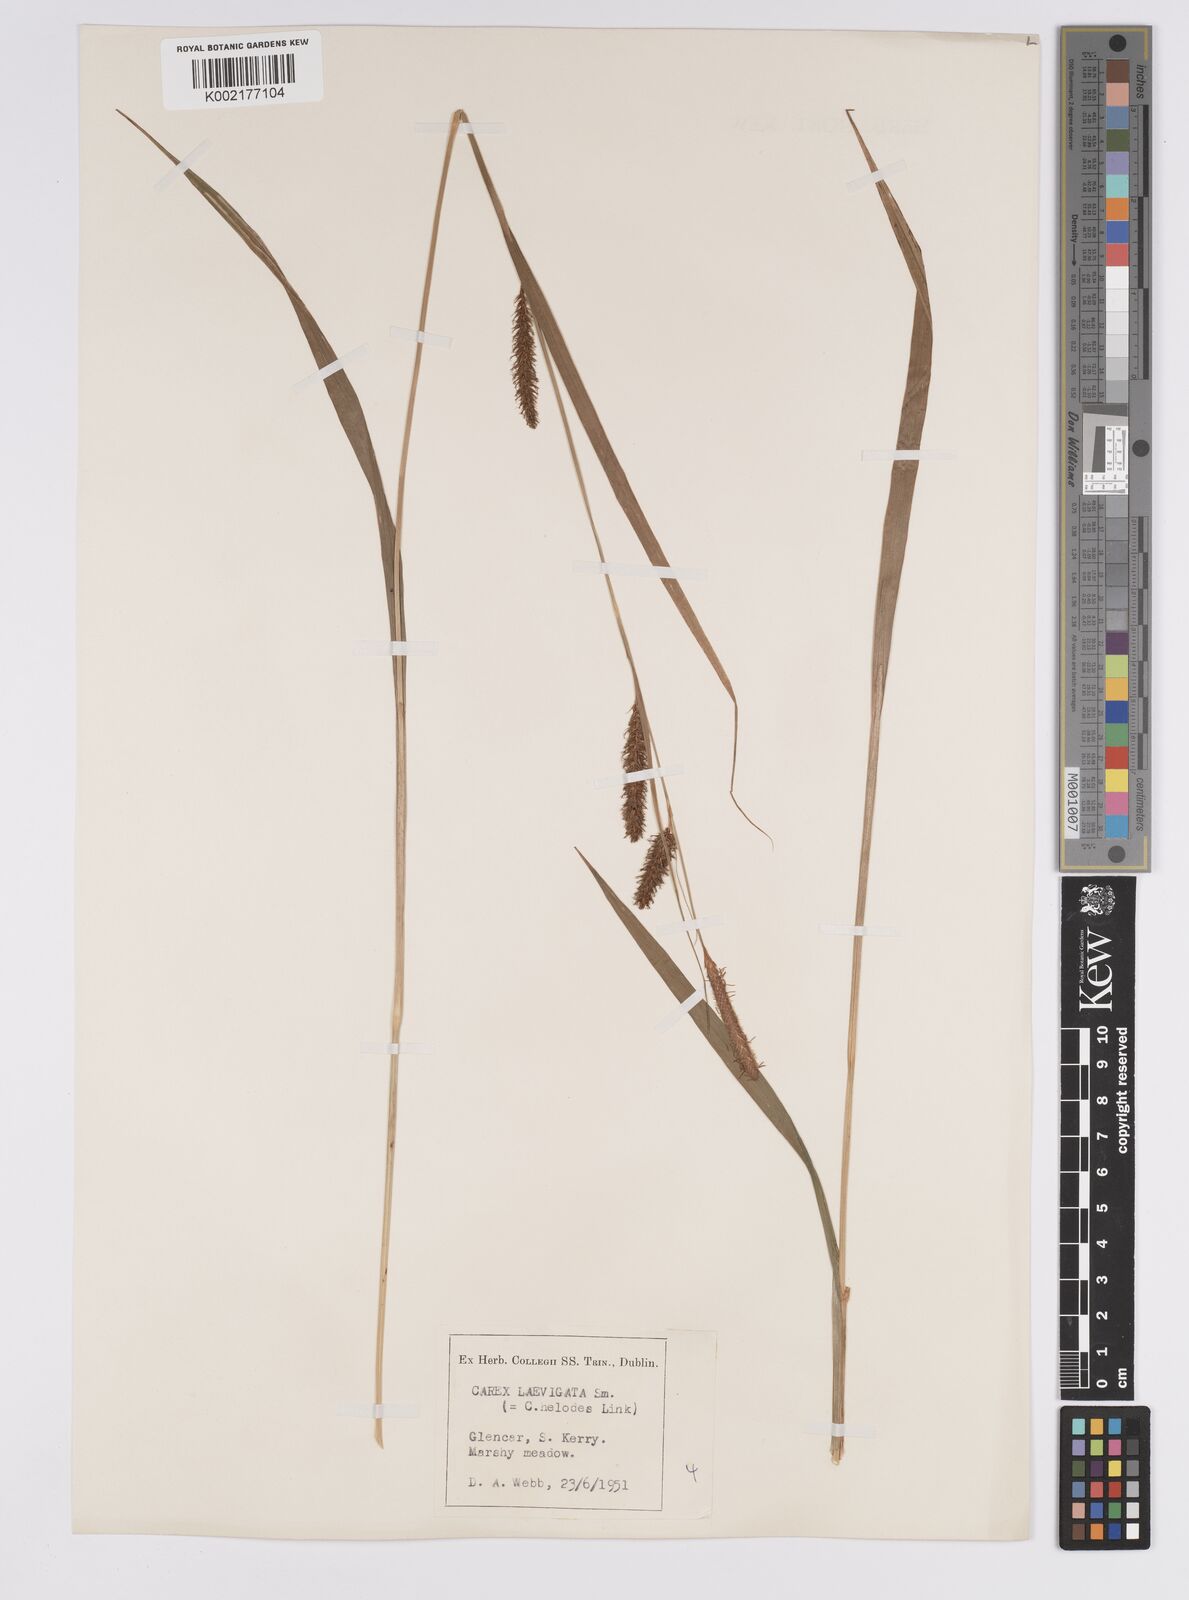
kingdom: Plantae
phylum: Tracheophyta
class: Liliopsida
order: Poales
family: Cyperaceae
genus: Carex
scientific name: Carex hostiana
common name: Tawny sedge
